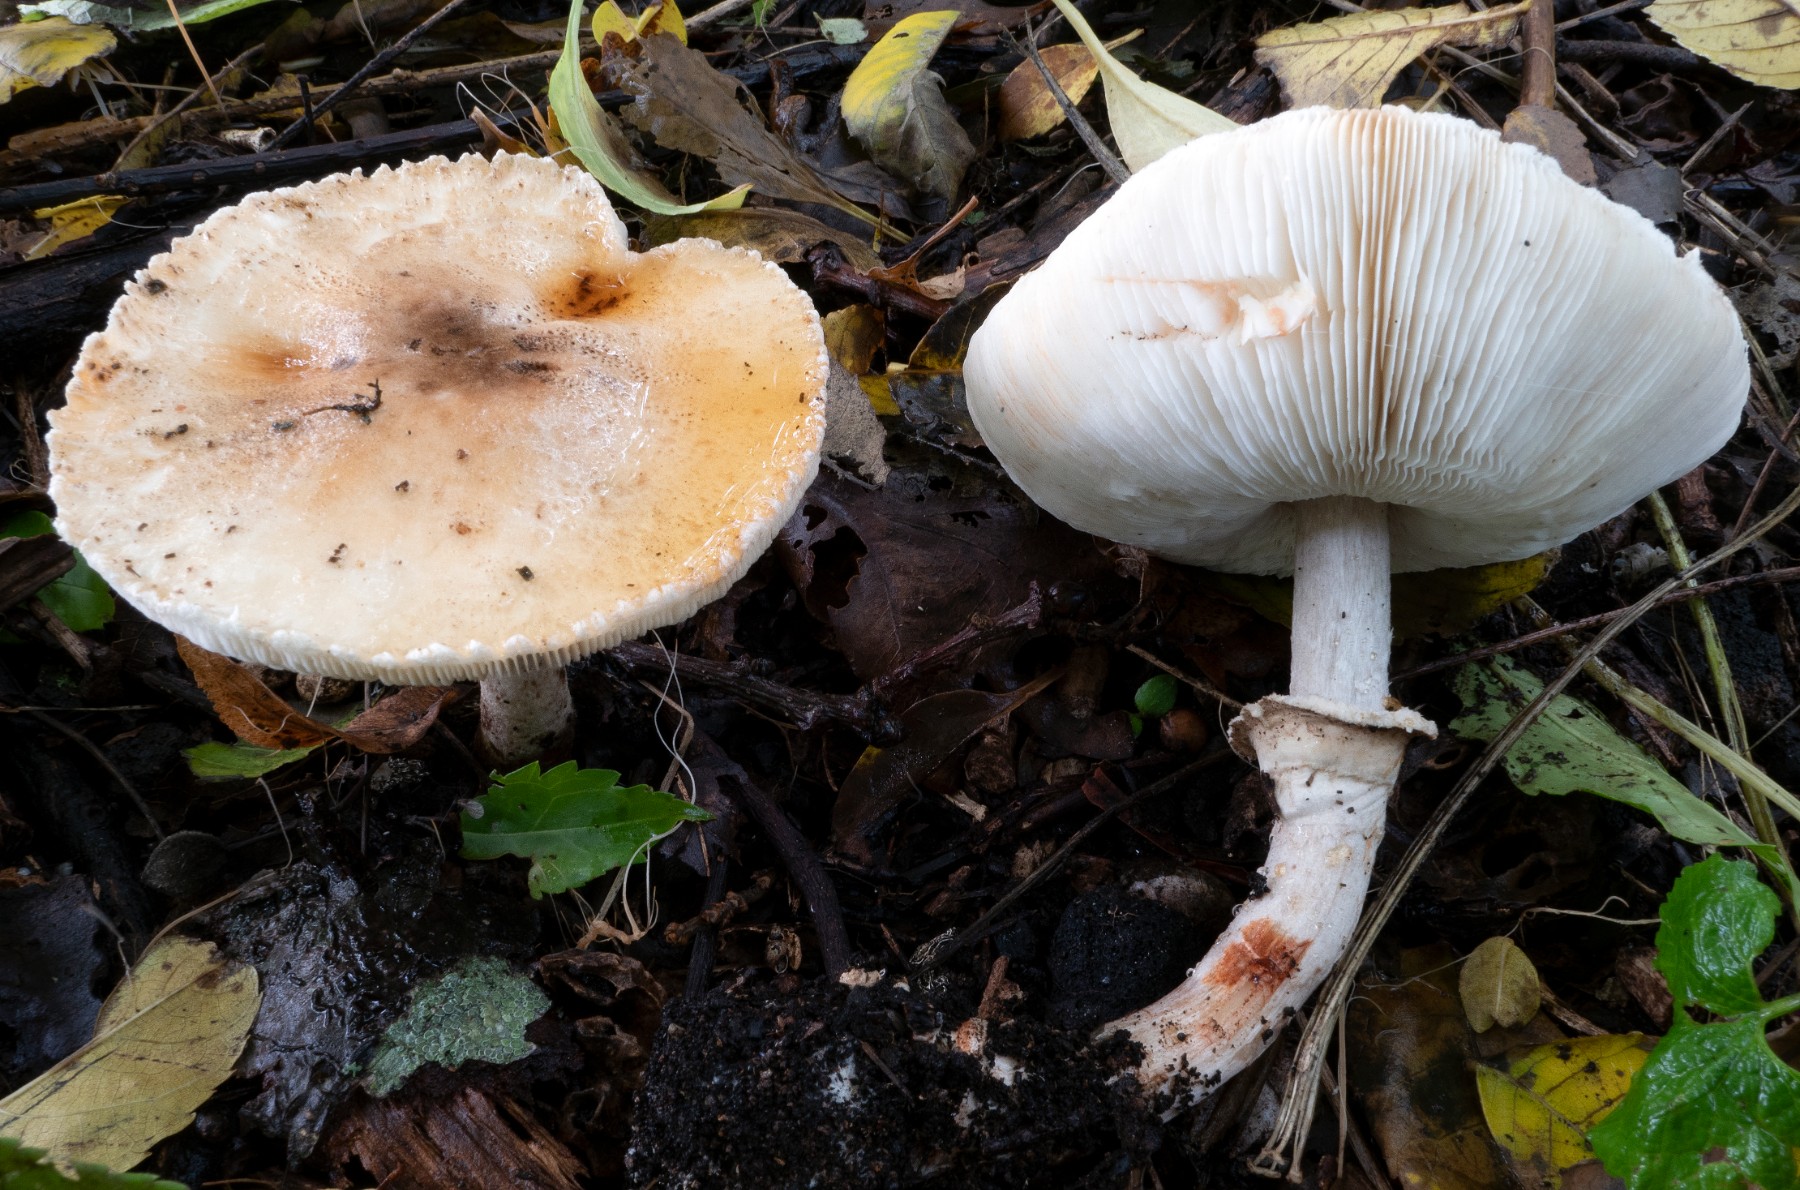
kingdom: Fungi
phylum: Basidiomycota
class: Agaricomycetes
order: Agaricales
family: Agaricaceae
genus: Leucoagaricus
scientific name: Leucoagaricus badhamii
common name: rødmende silkehat
